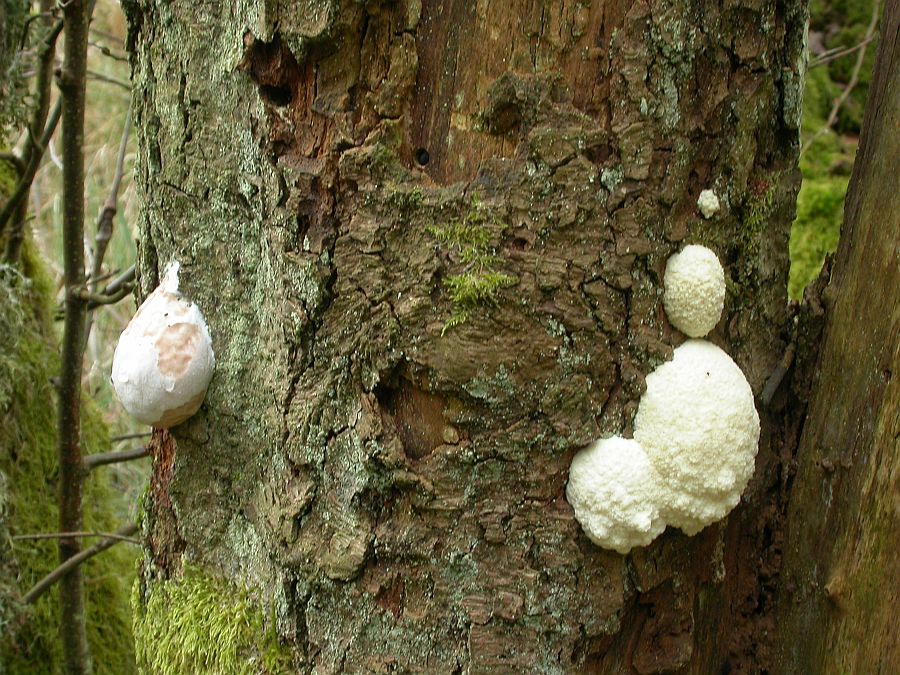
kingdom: Protozoa
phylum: Mycetozoa
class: Myxomycetes
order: Cribrariales
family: Tubiferaceae
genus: Reticularia
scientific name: Reticularia lycoperdon
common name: skinnende støvpude
